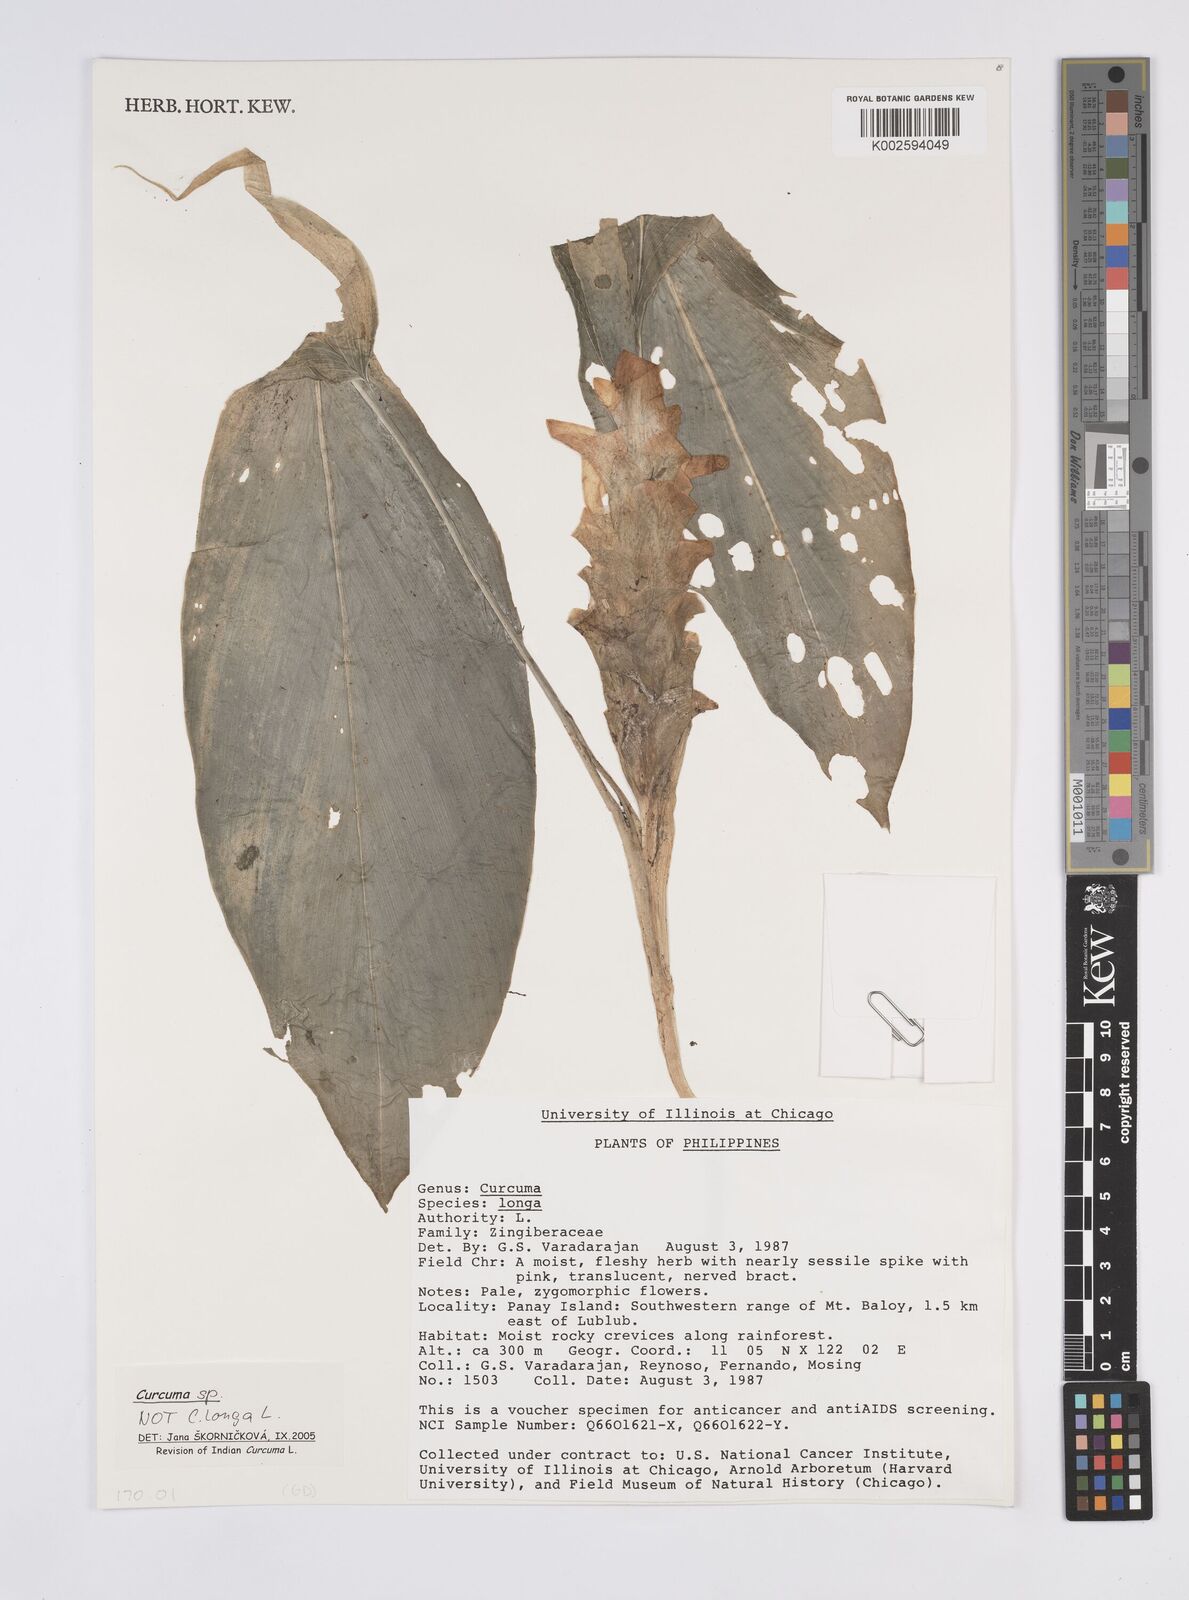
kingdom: Plantae
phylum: Tracheophyta
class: Liliopsida
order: Zingiberales
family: Zingiberaceae
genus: Curcuma
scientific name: Curcuma
